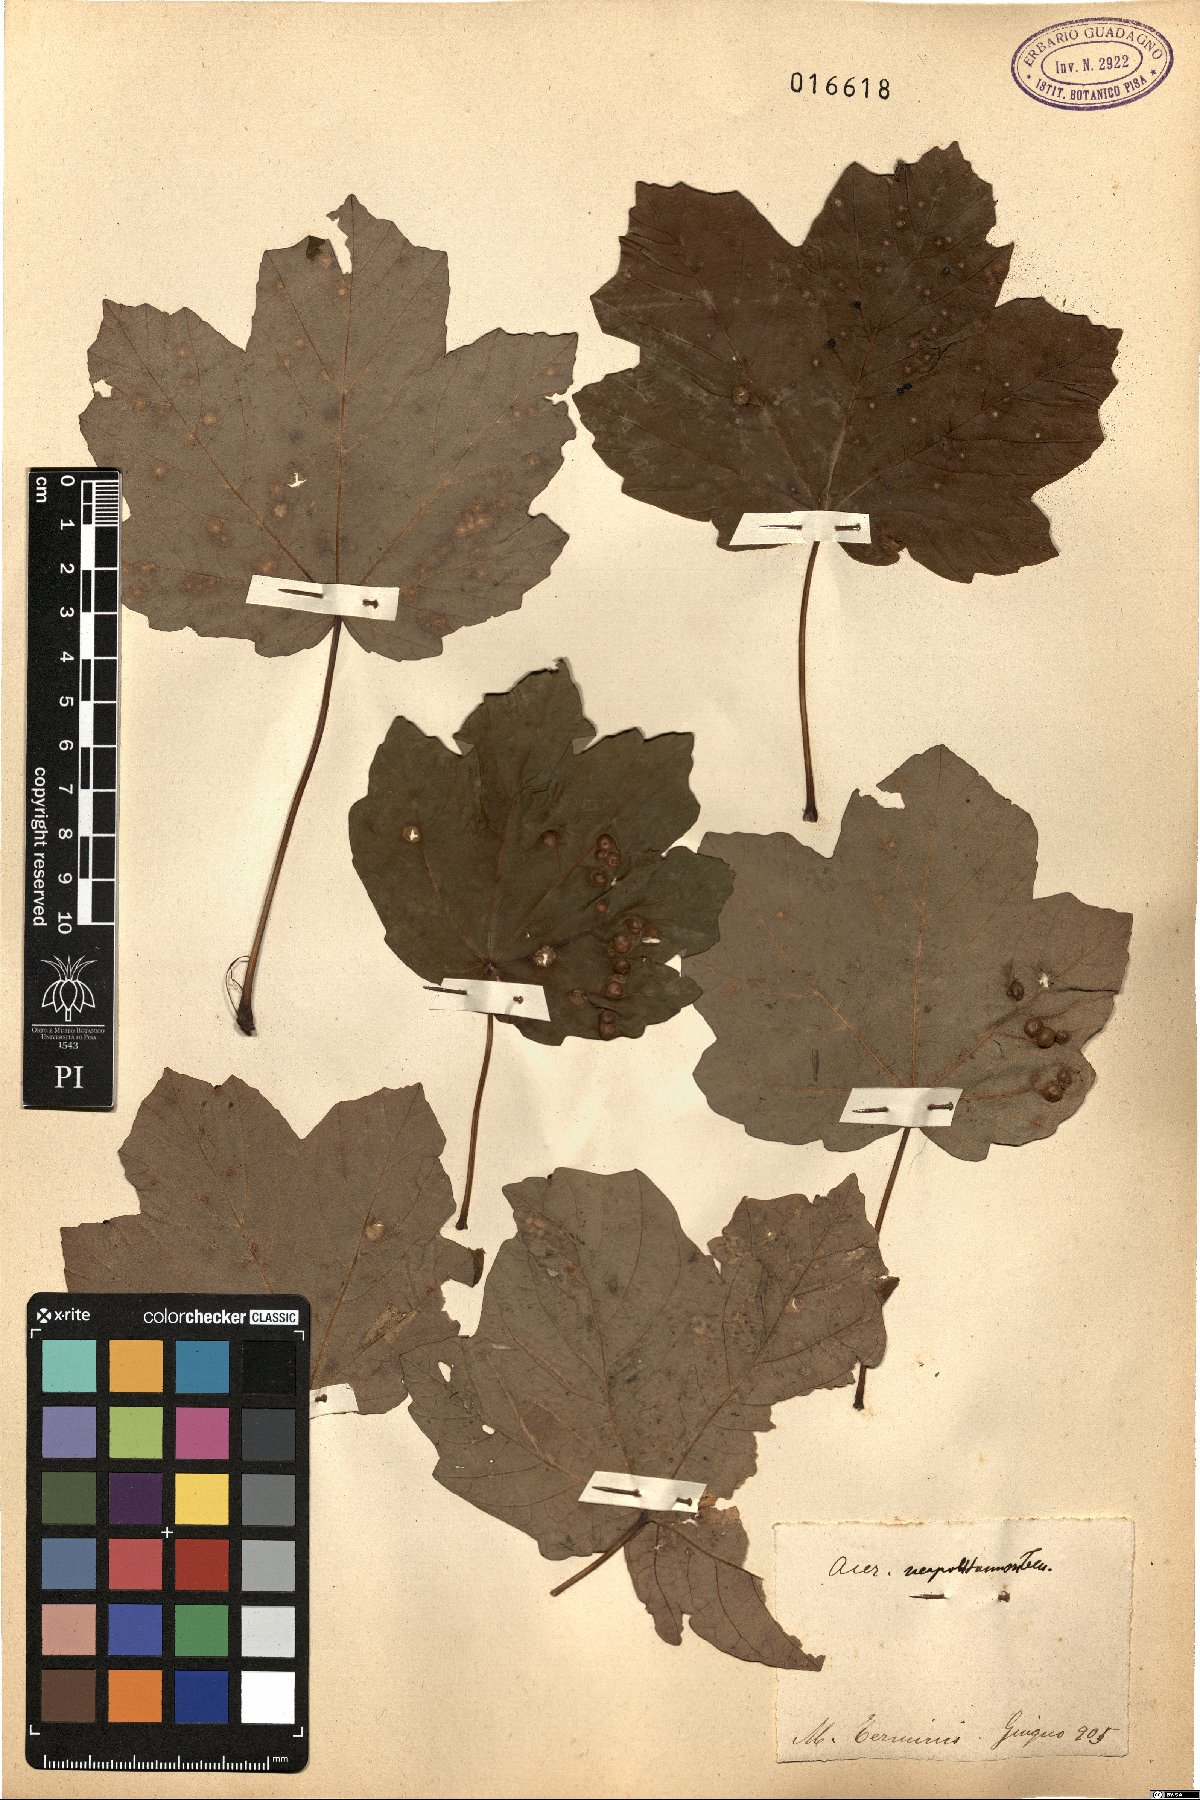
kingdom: Plantae
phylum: Tracheophyta
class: Magnoliopsida
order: Sapindales
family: Sapindaceae
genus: Acer
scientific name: Acer obtusatum
